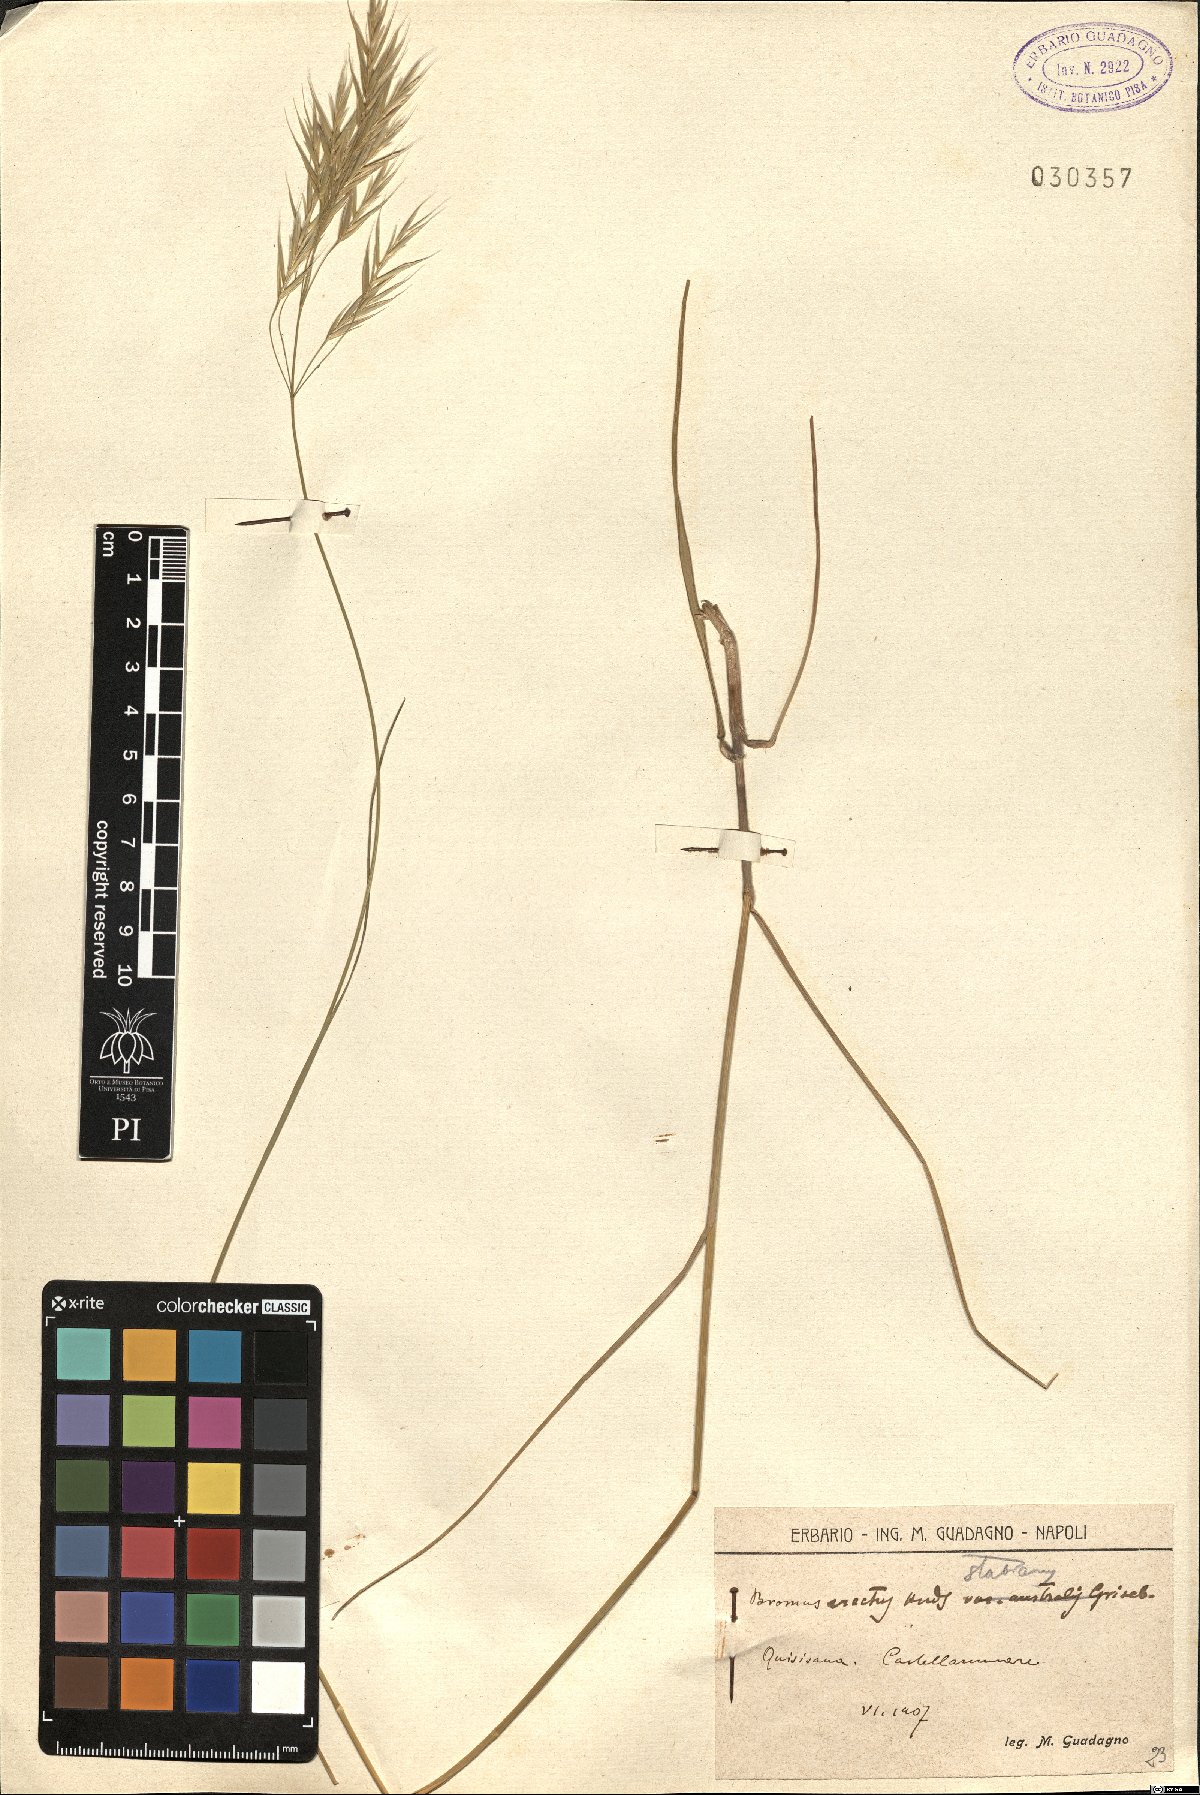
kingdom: Plantae
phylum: Tracheophyta
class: Liliopsida
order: Poales
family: Poaceae
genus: Bromus
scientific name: Bromus erectus
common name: Erect brome
